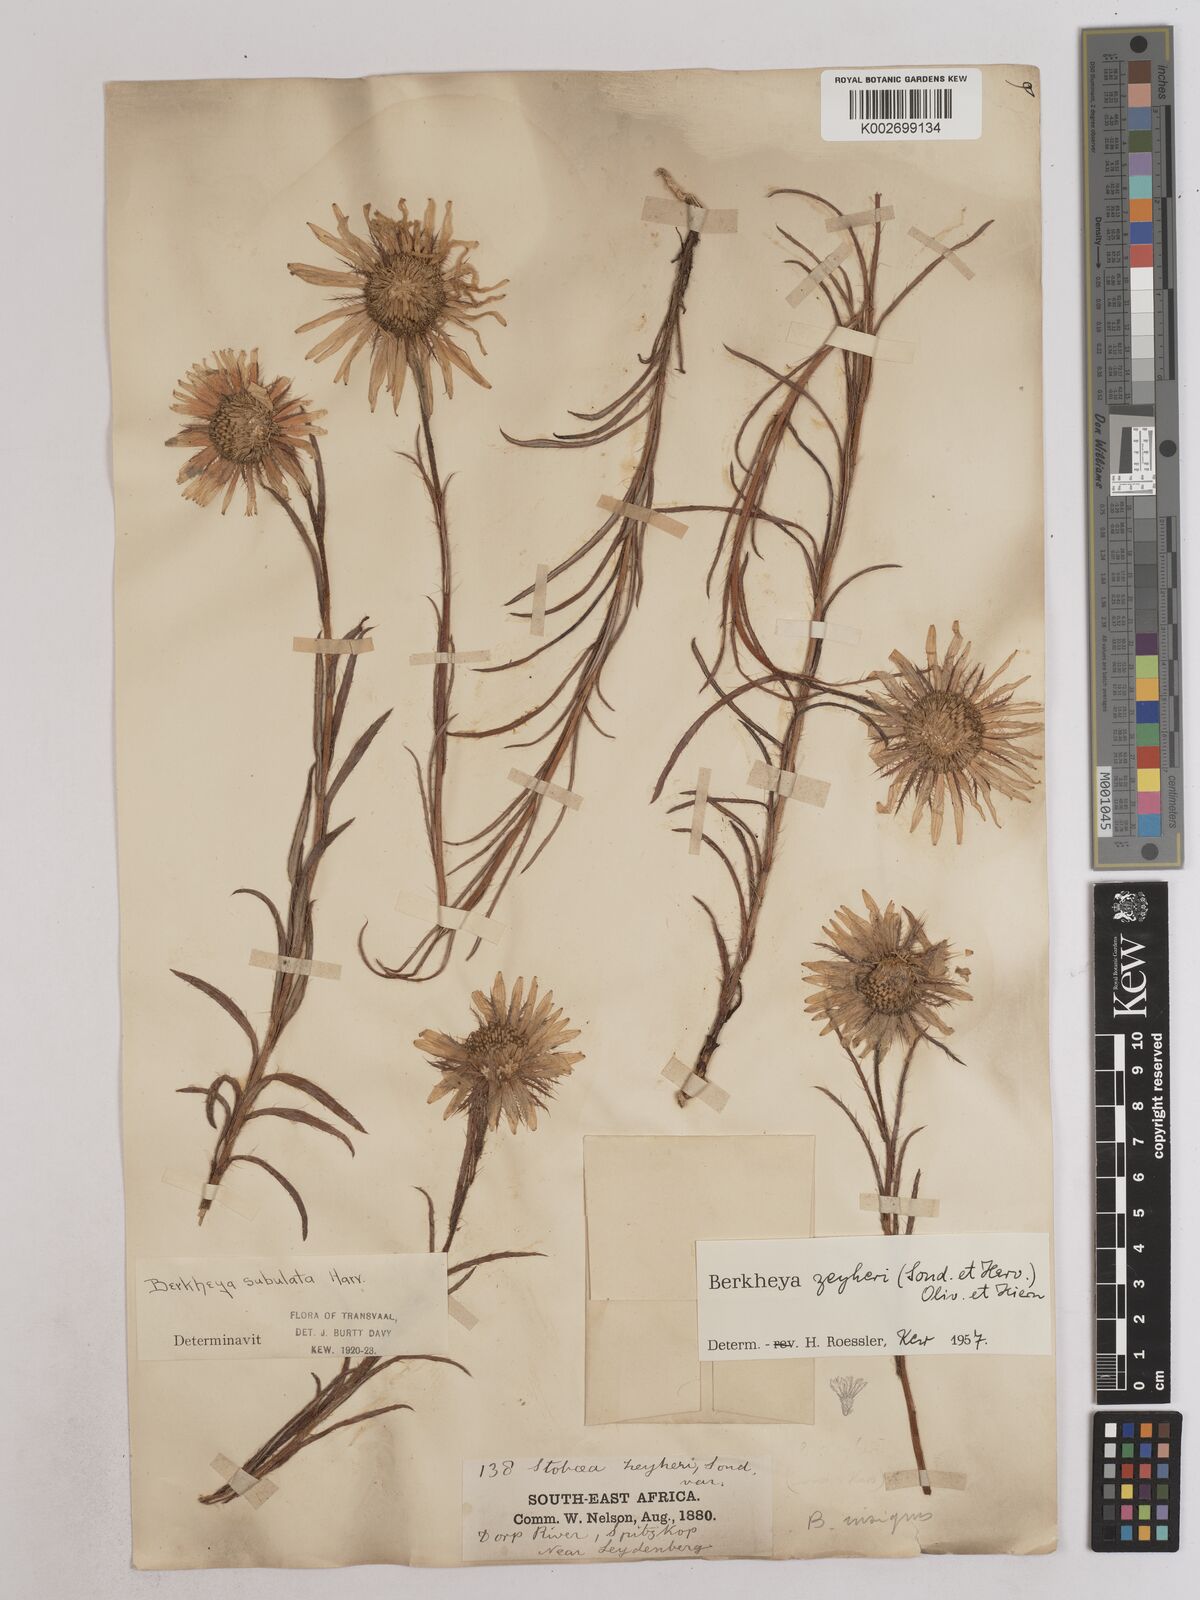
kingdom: Plantae
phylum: Tracheophyta
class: Magnoliopsida
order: Asterales
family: Asteraceae
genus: Berkheya
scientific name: Berkheya insignis
